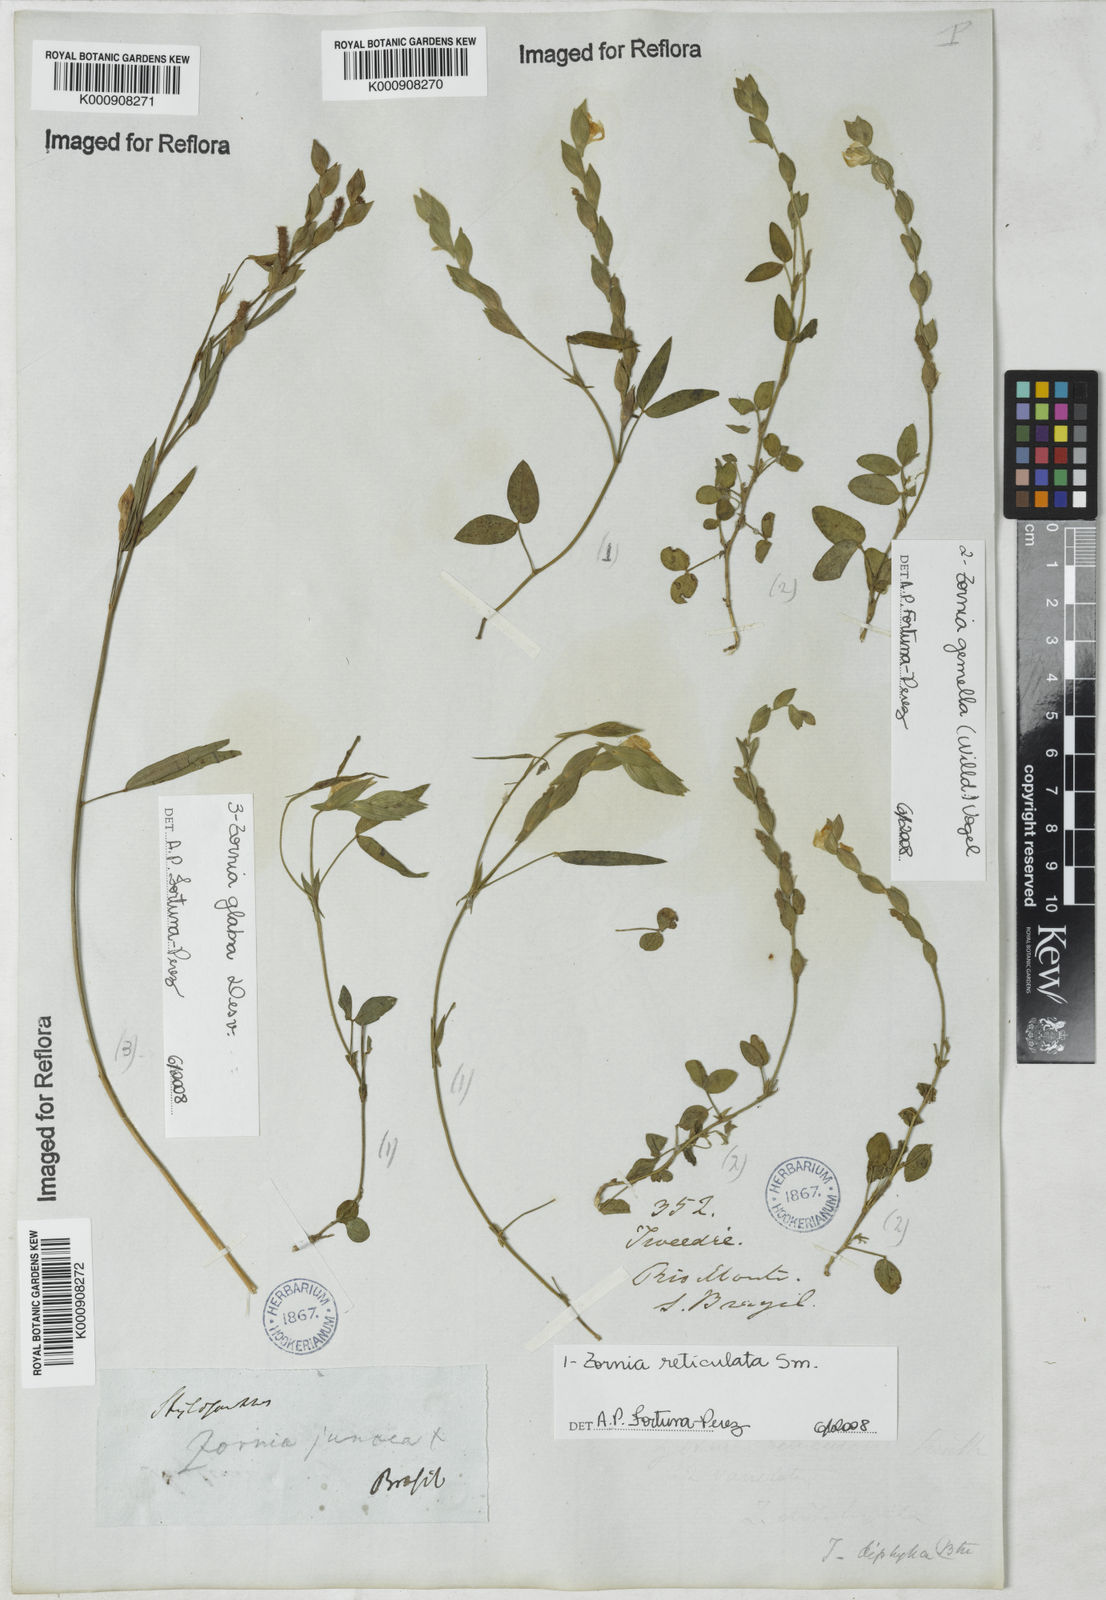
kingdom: Plantae
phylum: Tracheophyta
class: Magnoliopsida
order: Fabales
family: Fabaceae
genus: Zornia
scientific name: Zornia
